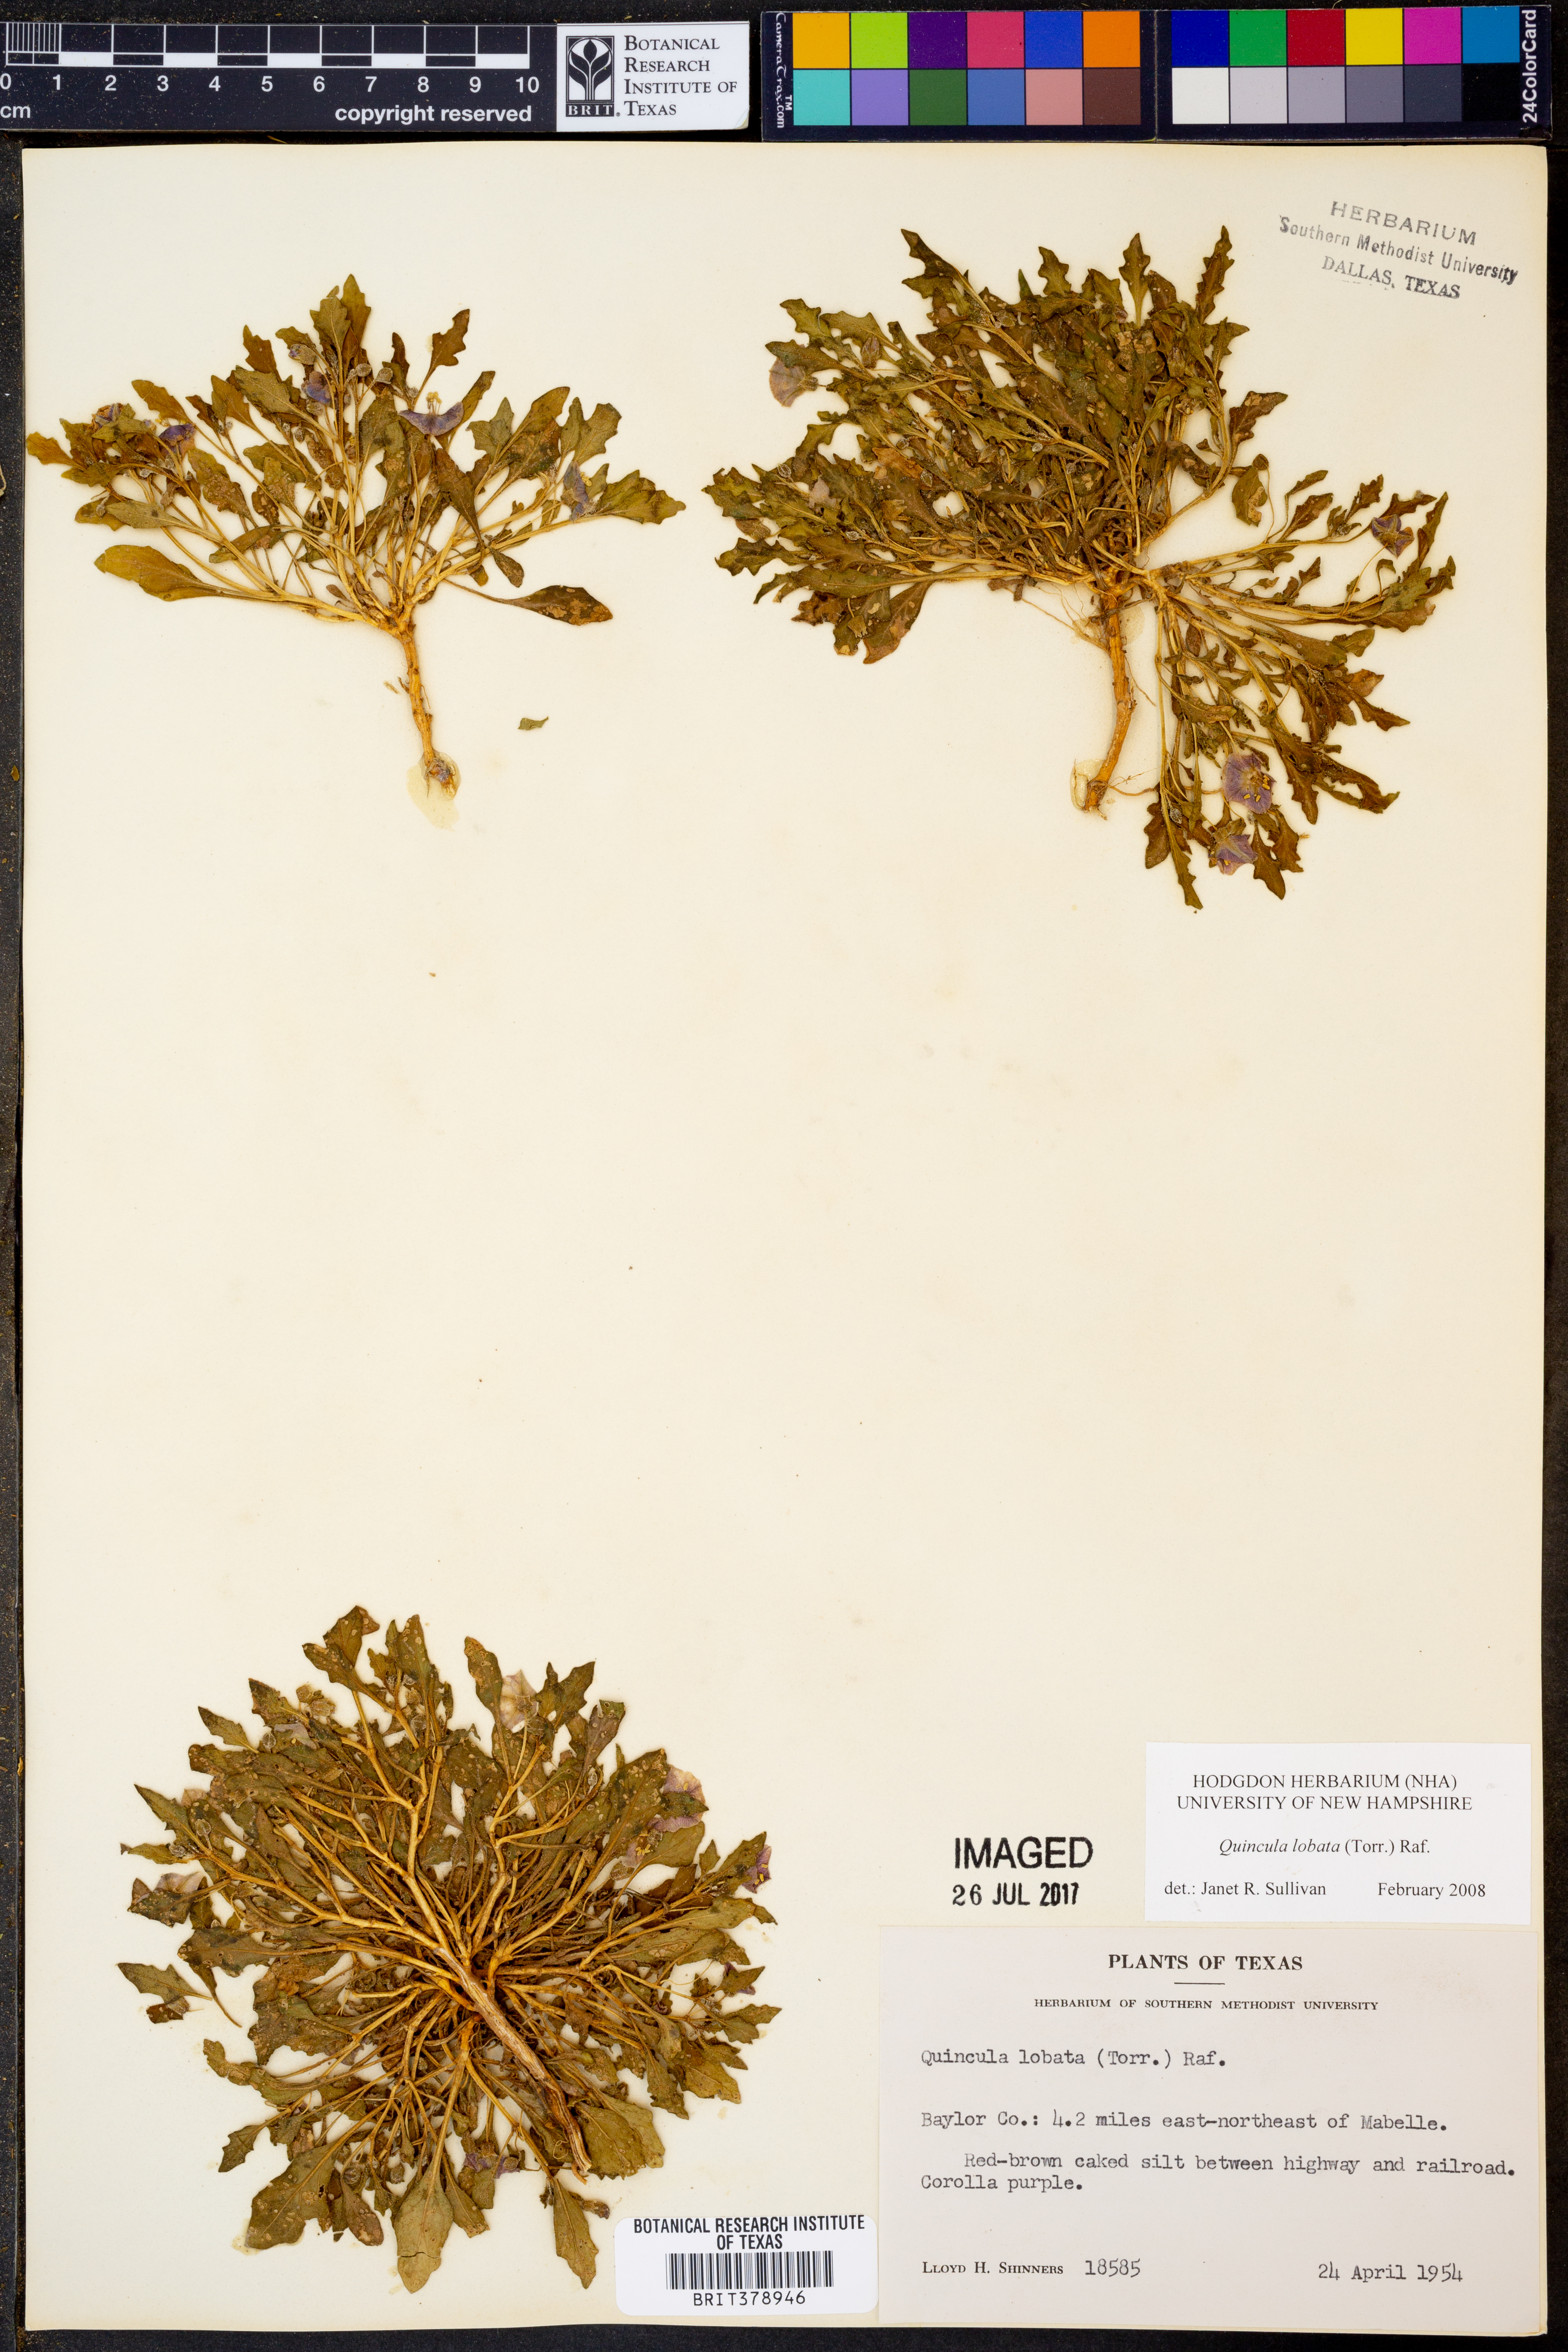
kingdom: Plantae
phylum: Tracheophyta
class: Magnoliopsida
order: Solanales
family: Solanaceae
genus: Quincula
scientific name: Quincula lobata
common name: Purple-ground-cherry
